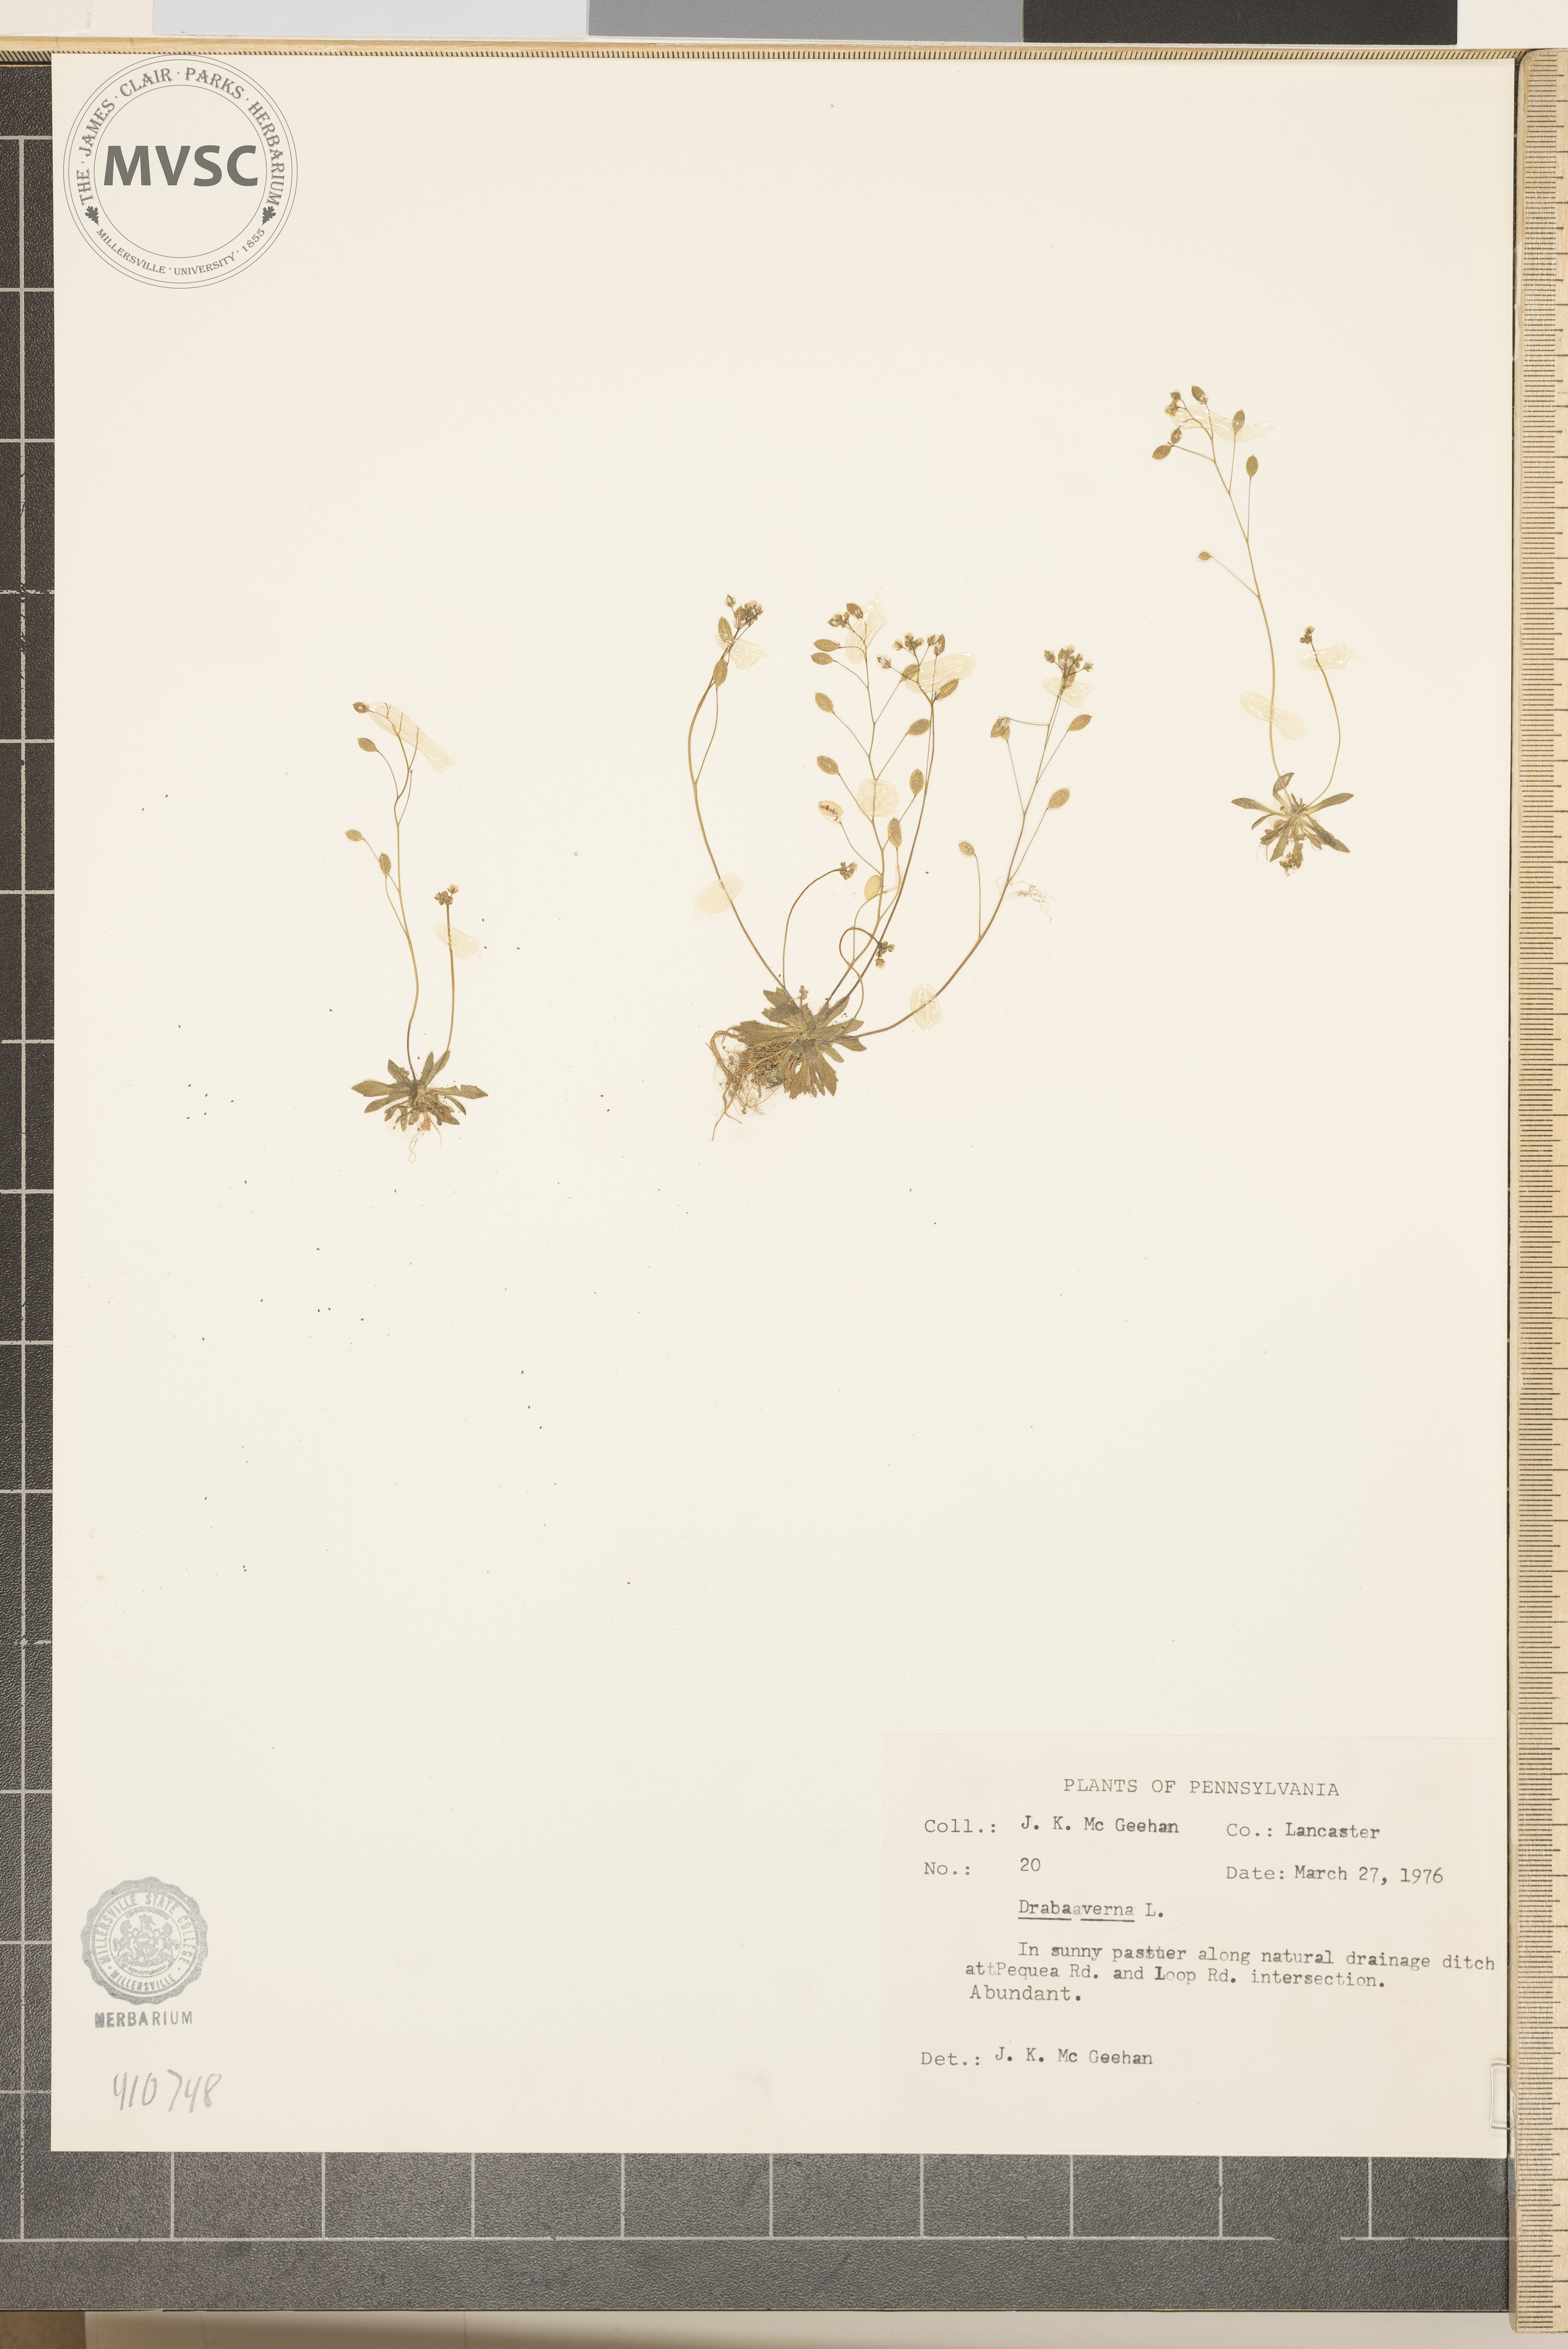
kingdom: Plantae
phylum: Tracheophyta
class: Magnoliopsida
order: Brassicales
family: Brassicaceae
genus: Draba
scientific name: Draba verna
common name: Spring draba
